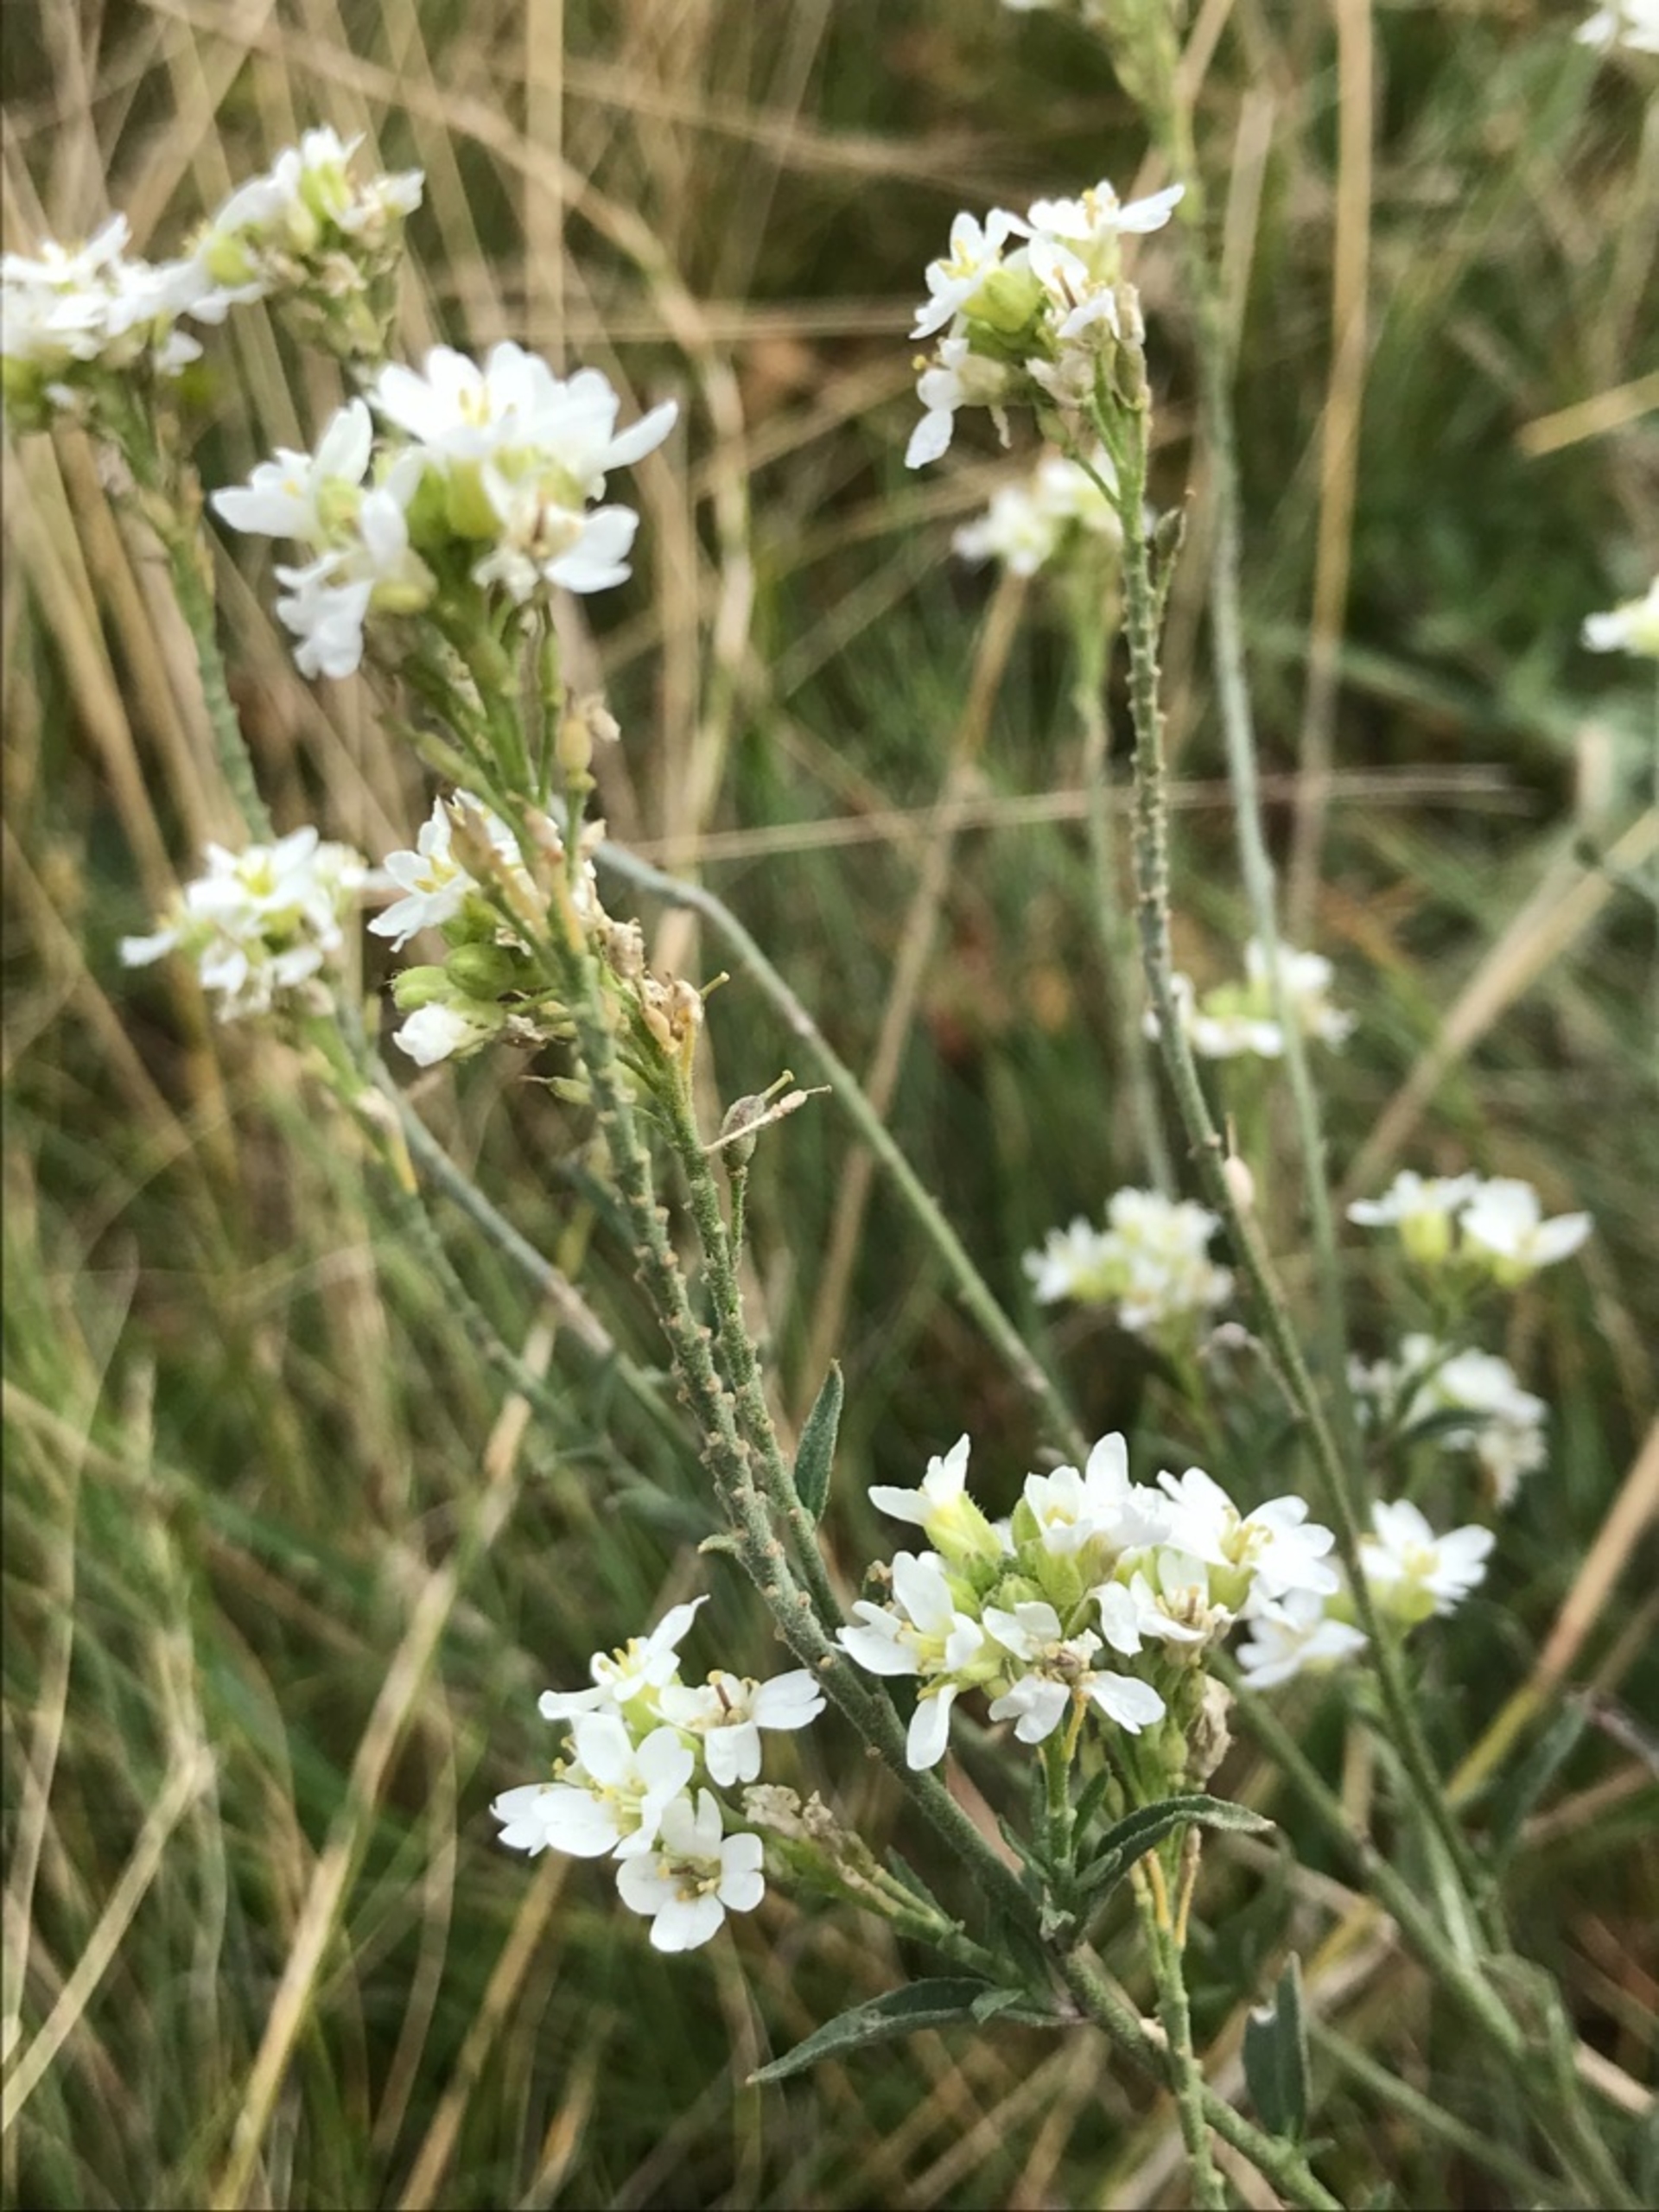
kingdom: Plantae
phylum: Tracheophyta
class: Magnoliopsida
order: Brassicales
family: Brassicaceae
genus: Berteroa
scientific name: Berteroa incana
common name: Kløvplade
